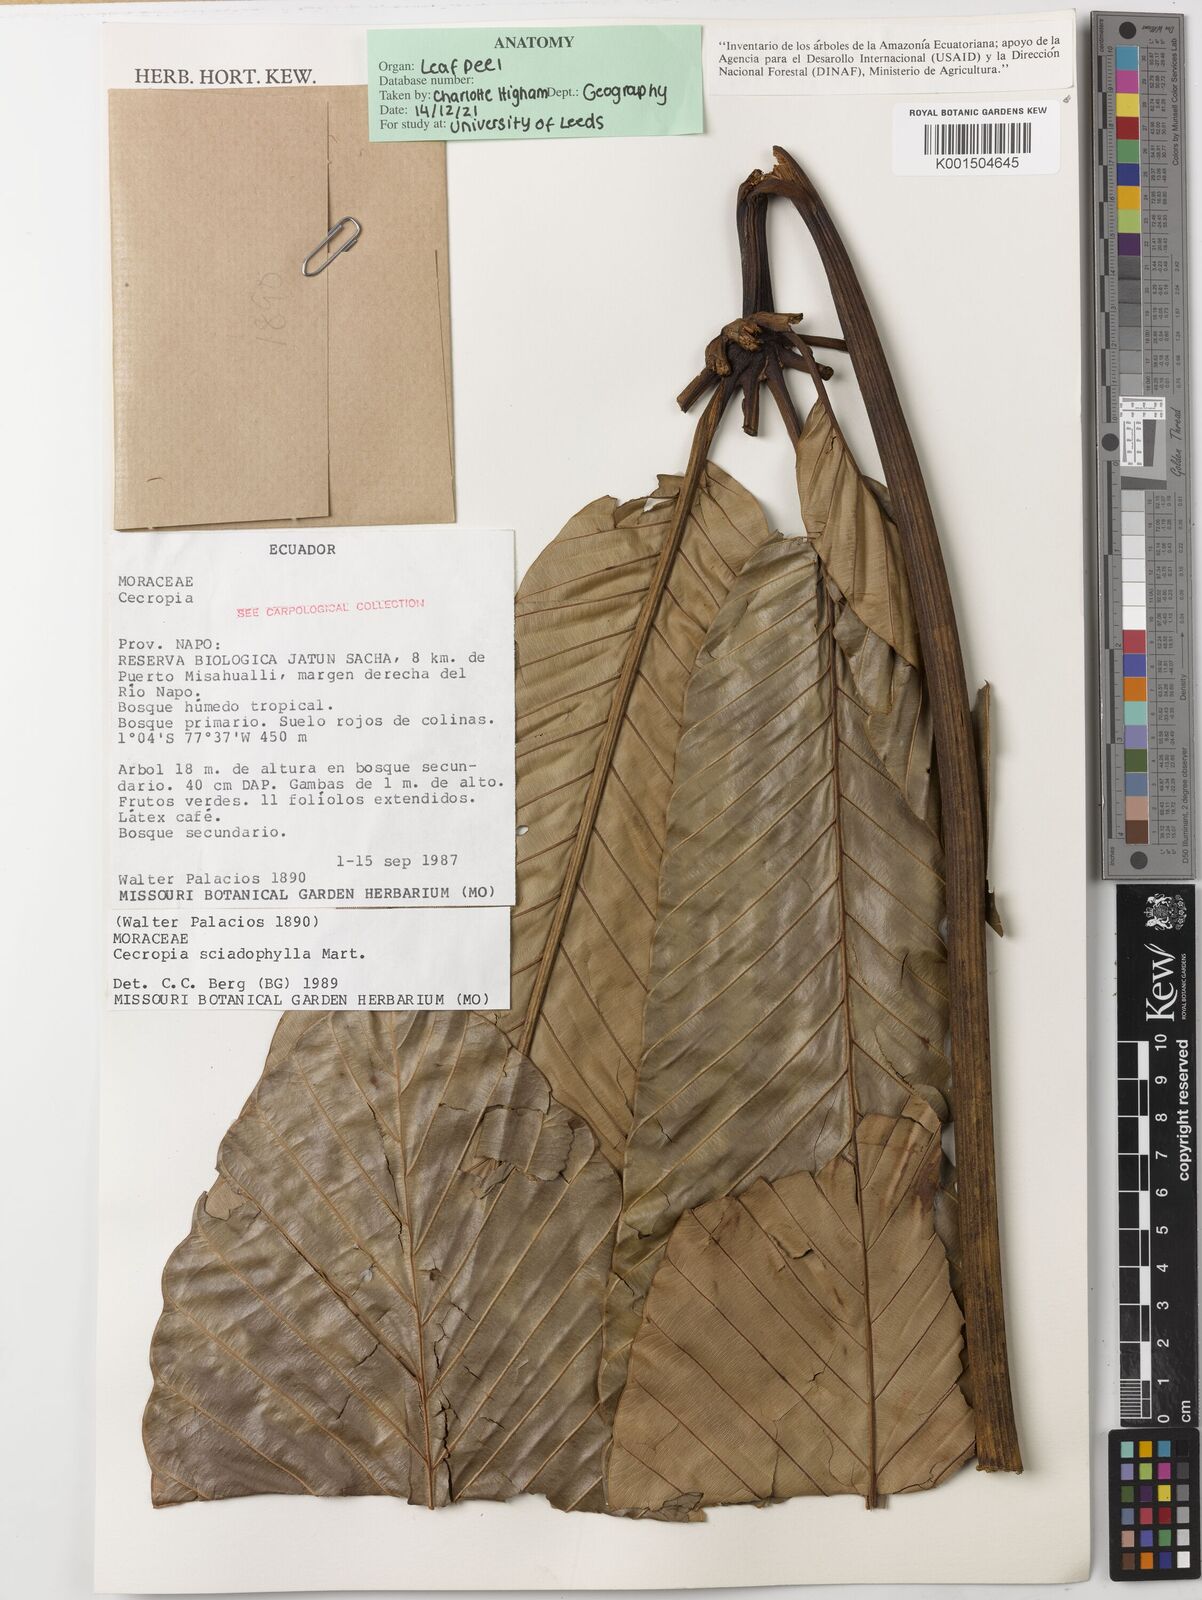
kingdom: Plantae
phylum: Tracheophyta
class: Magnoliopsida
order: Rosales
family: Urticaceae
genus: Cecropia
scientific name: Cecropia sciadophylla
